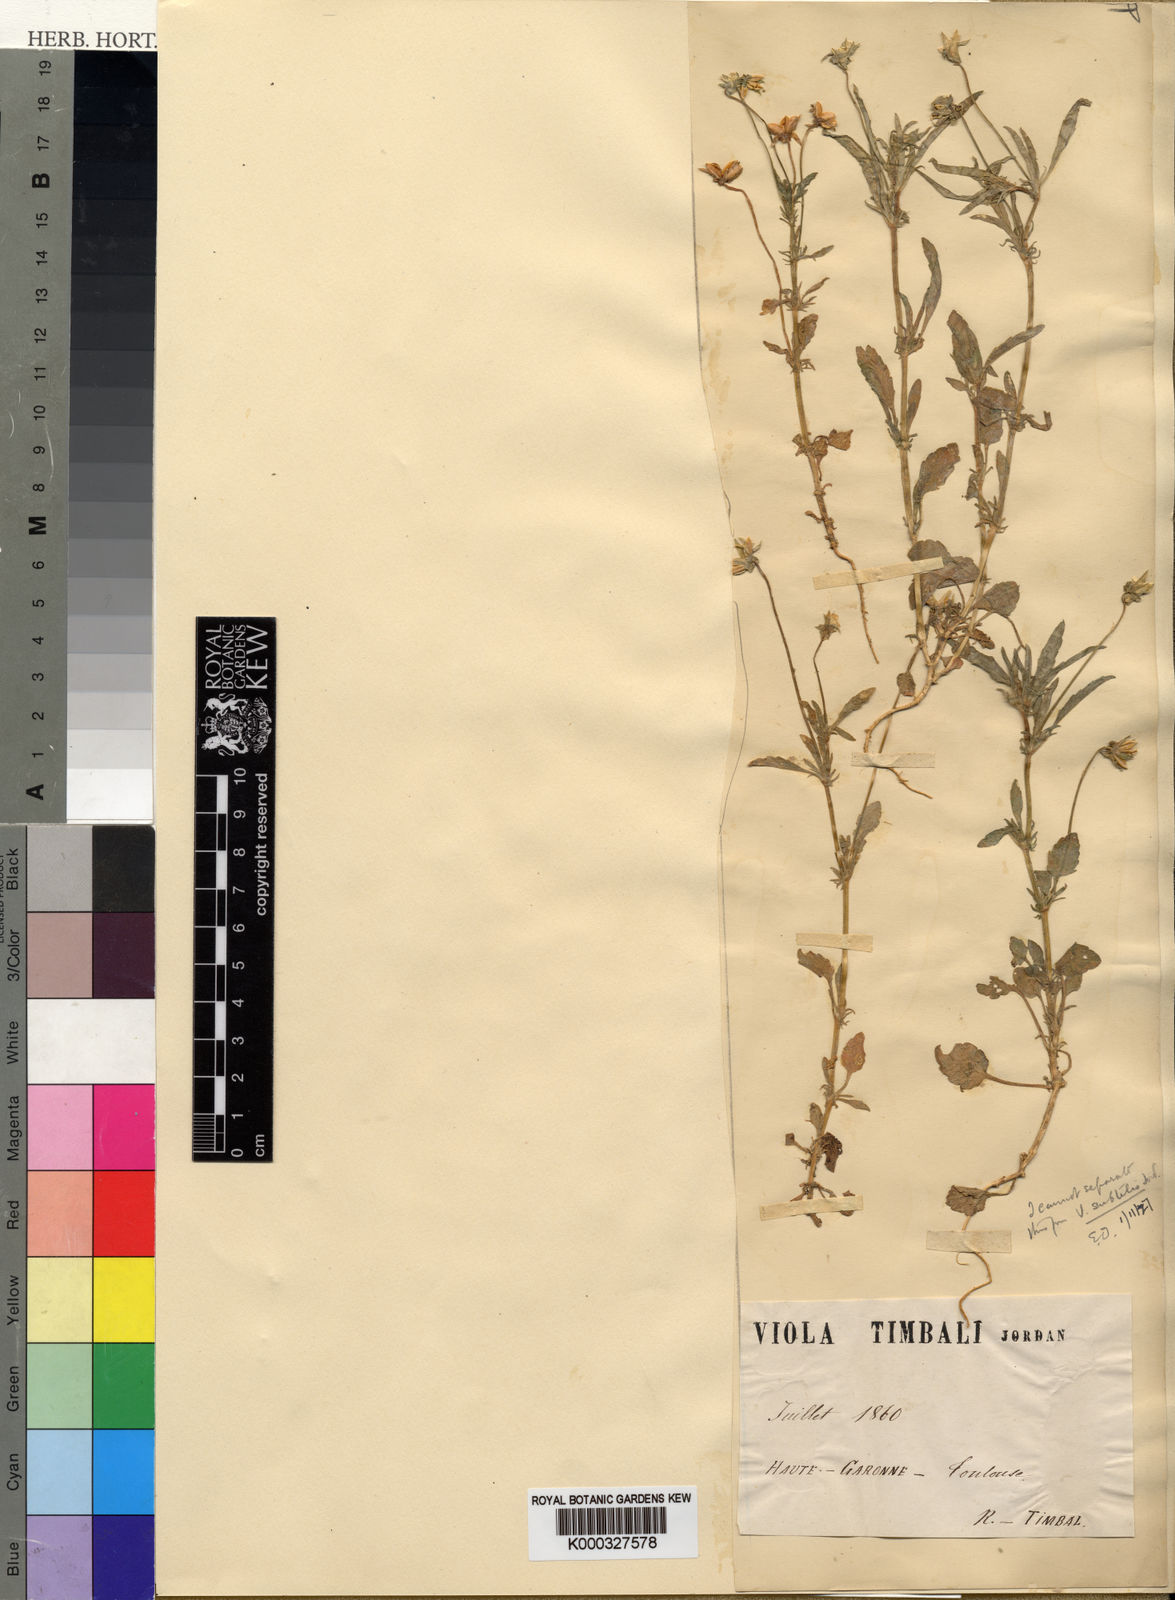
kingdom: Plantae
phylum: Tracheophyta
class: Magnoliopsida
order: Malpighiales
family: Violaceae
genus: Viola
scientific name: Viola arvensis
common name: Field pansy
